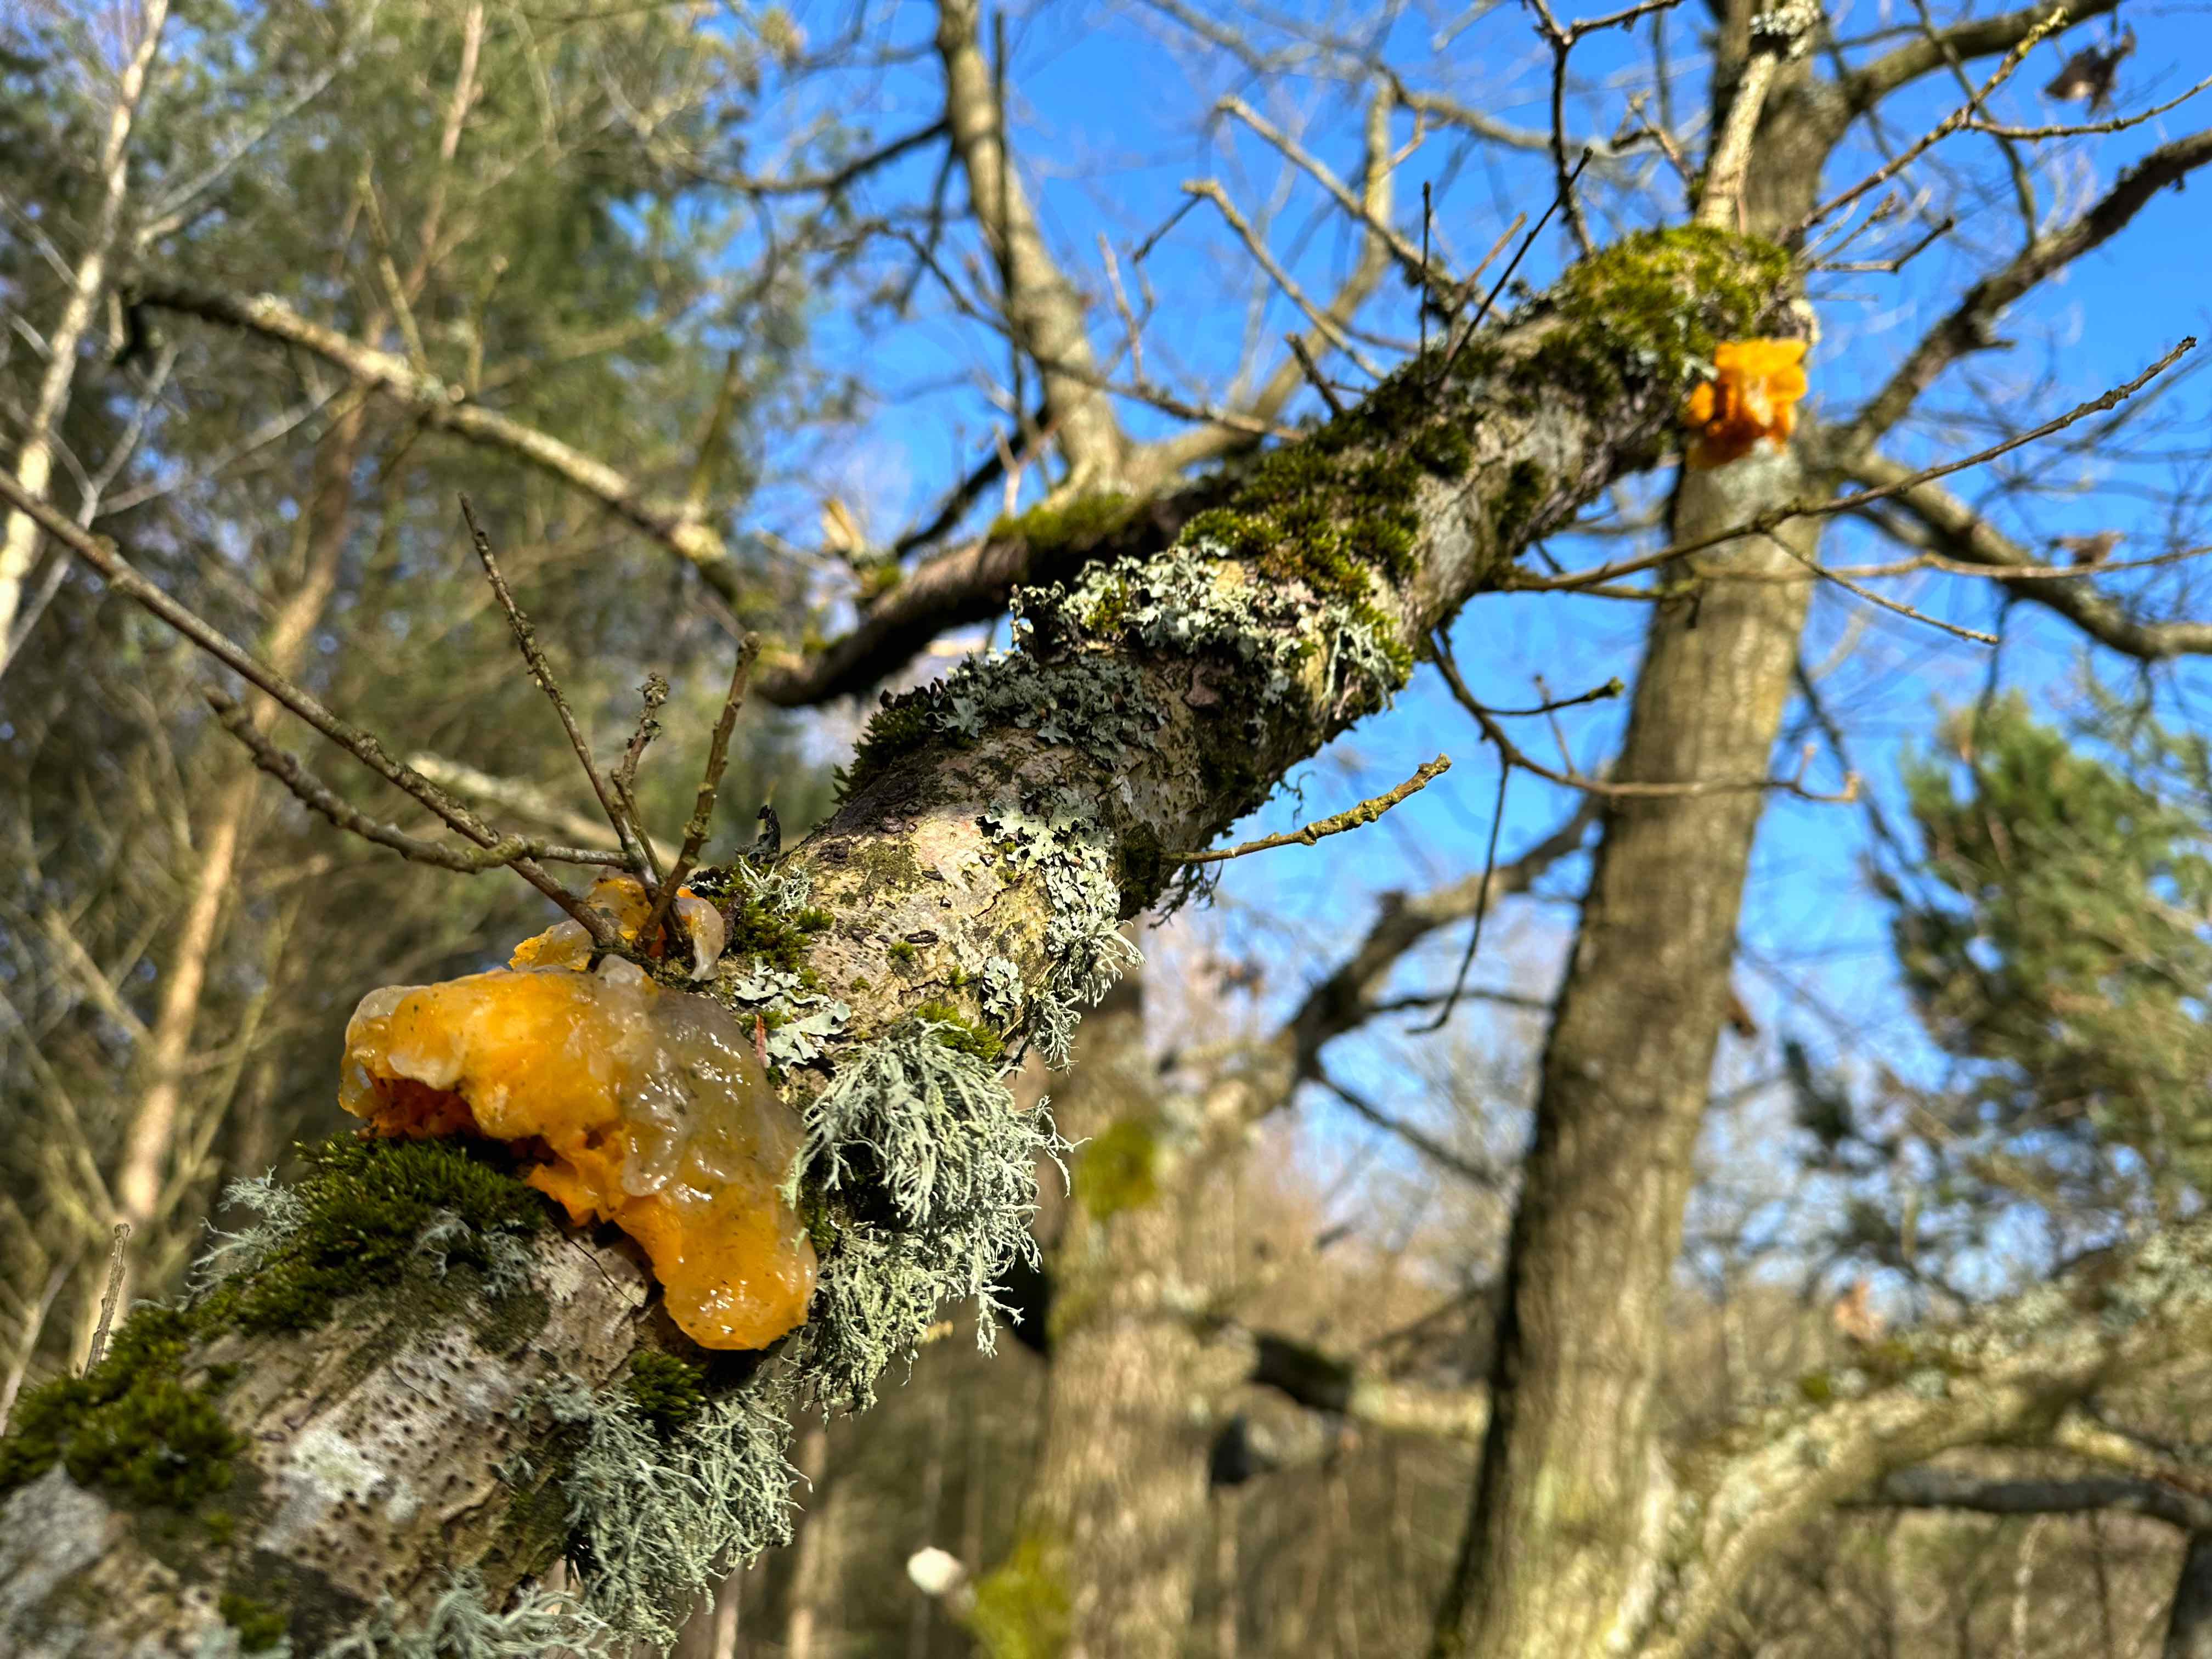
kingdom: Fungi
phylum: Basidiomycota
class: Tremellomycetes
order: Tremellales
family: Tremellaceae
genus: Tremella
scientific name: Tremella mesenterica
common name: gul bævresvamp
